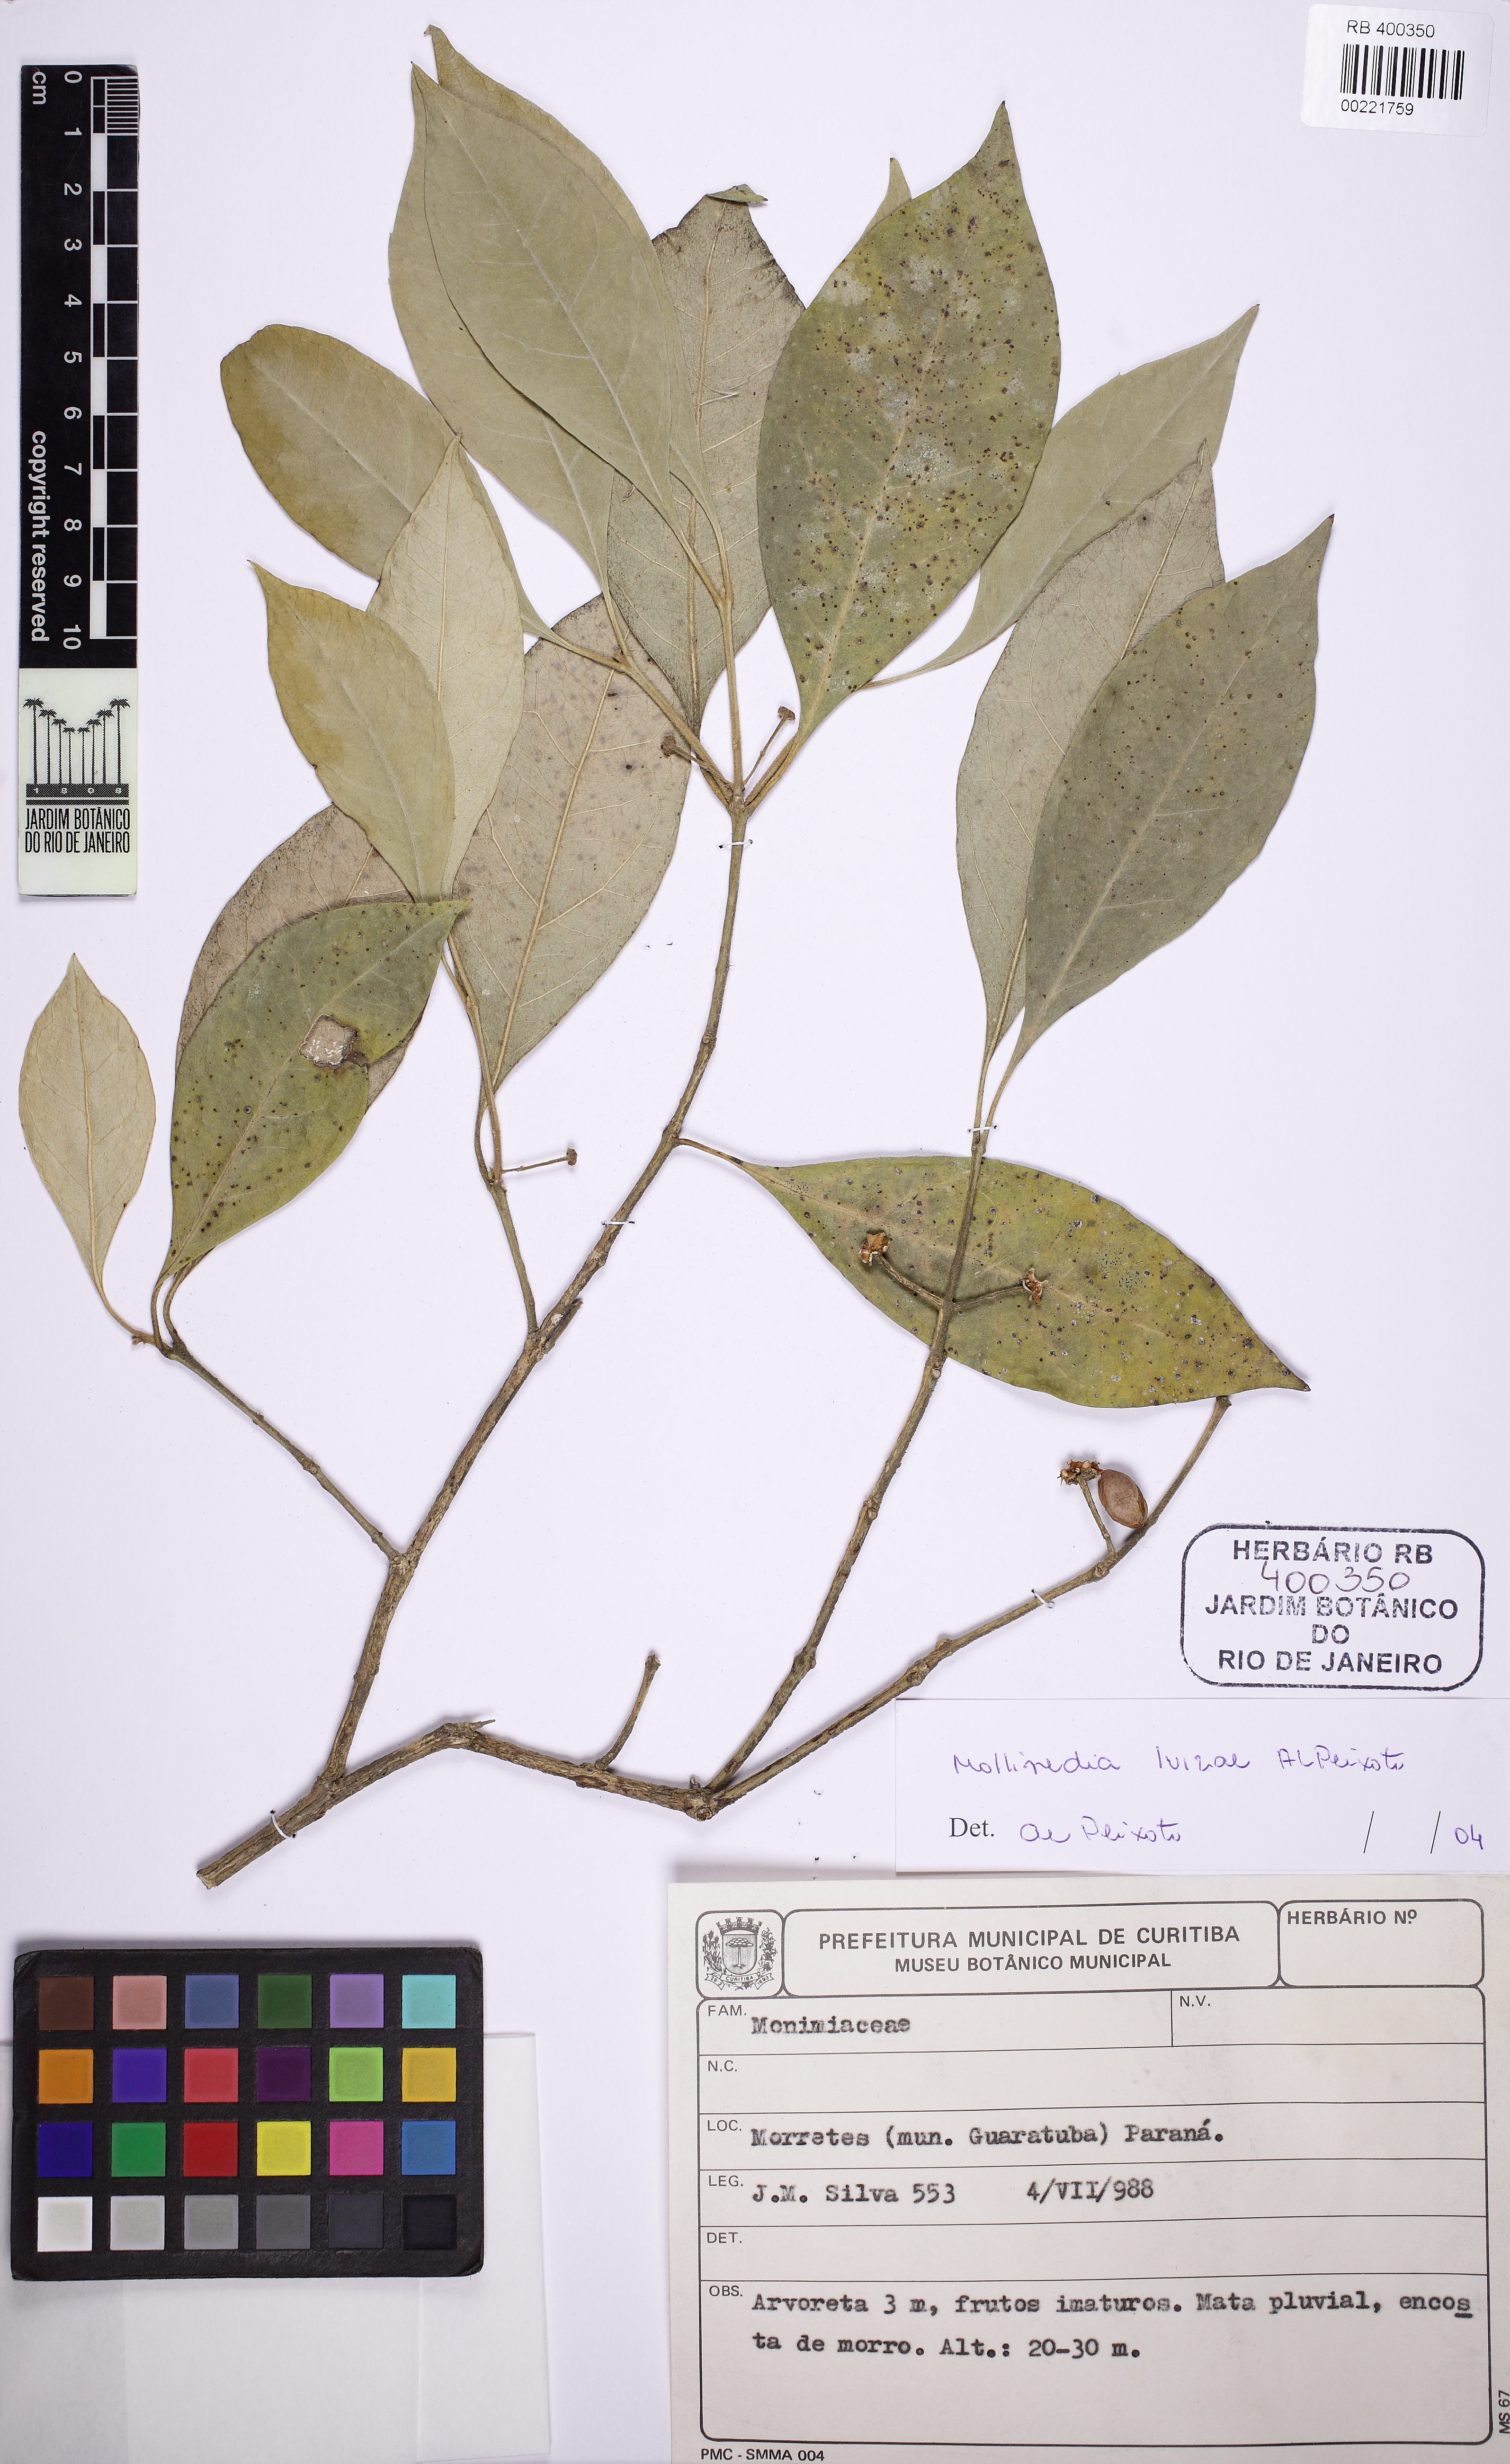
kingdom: Plantae
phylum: Tracheophyta
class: Magnoliopsida
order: Laurales
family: Monimiaceae
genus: Mollinedia
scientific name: Mollinedia luizae
